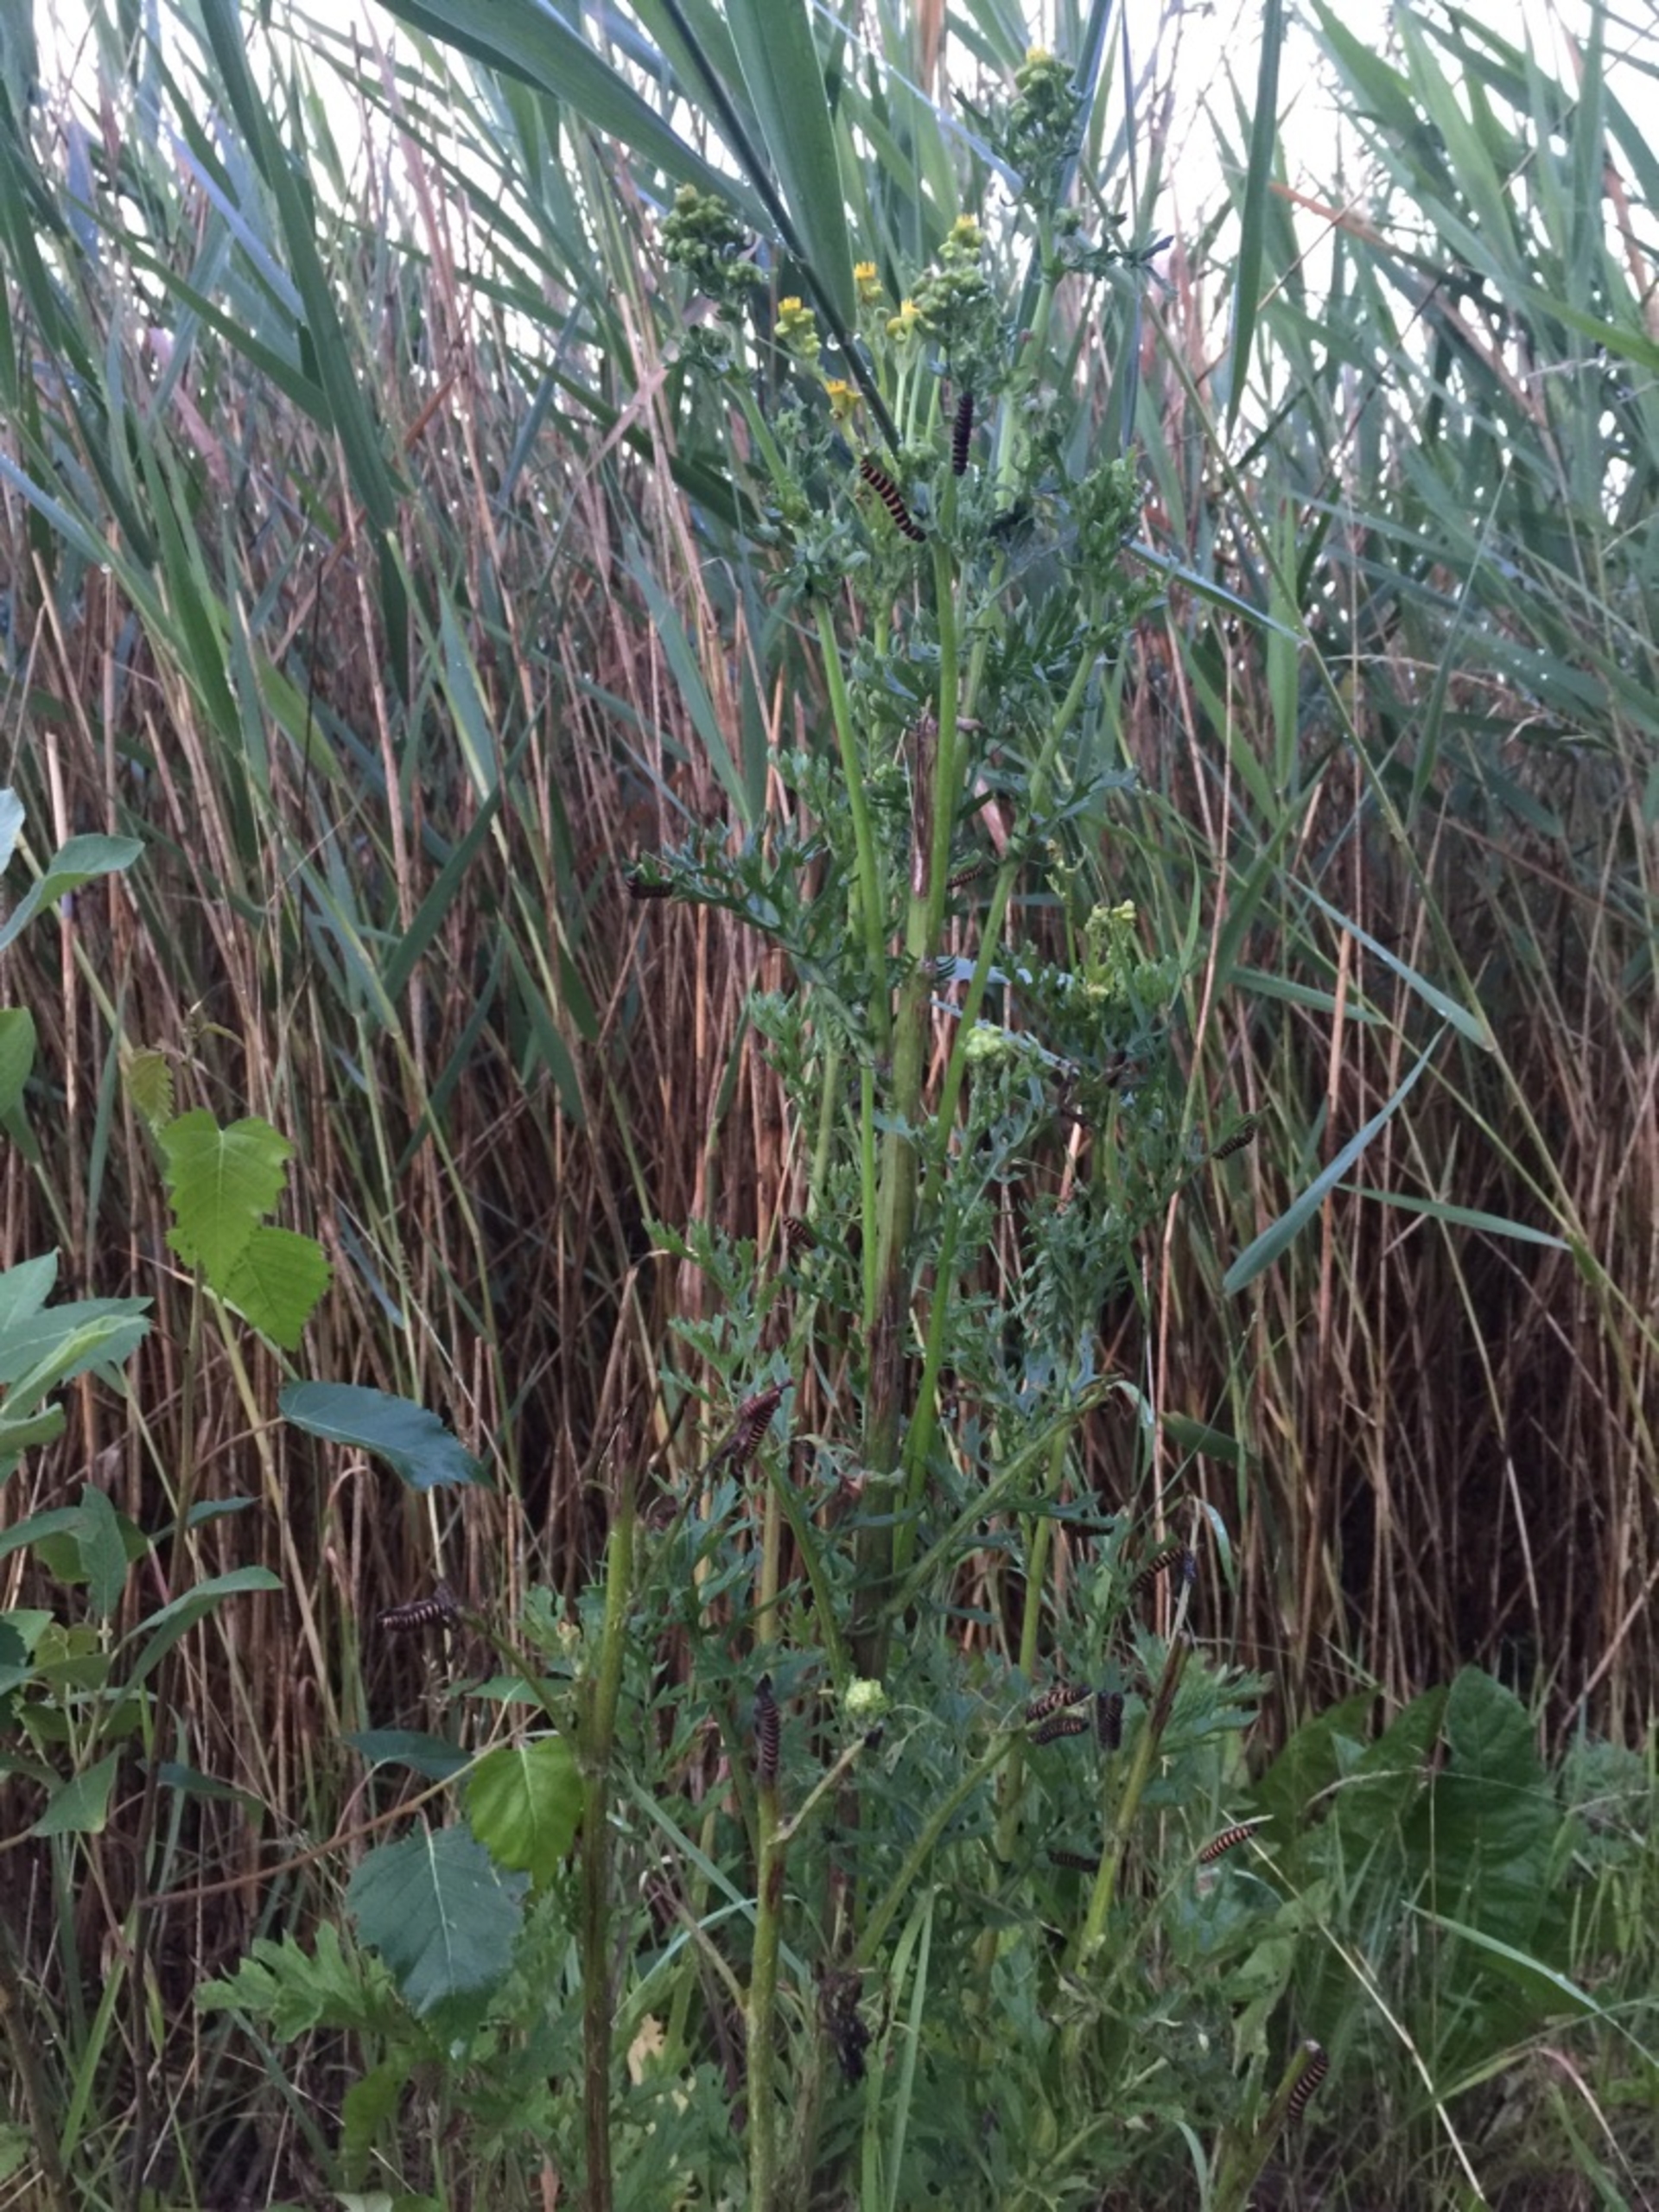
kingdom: Animalia
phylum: Arthropoda
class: Insecta
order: Lepidoptera
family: Erebidae
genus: Tyria
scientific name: Tyria jacobaeae
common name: Blodplet
